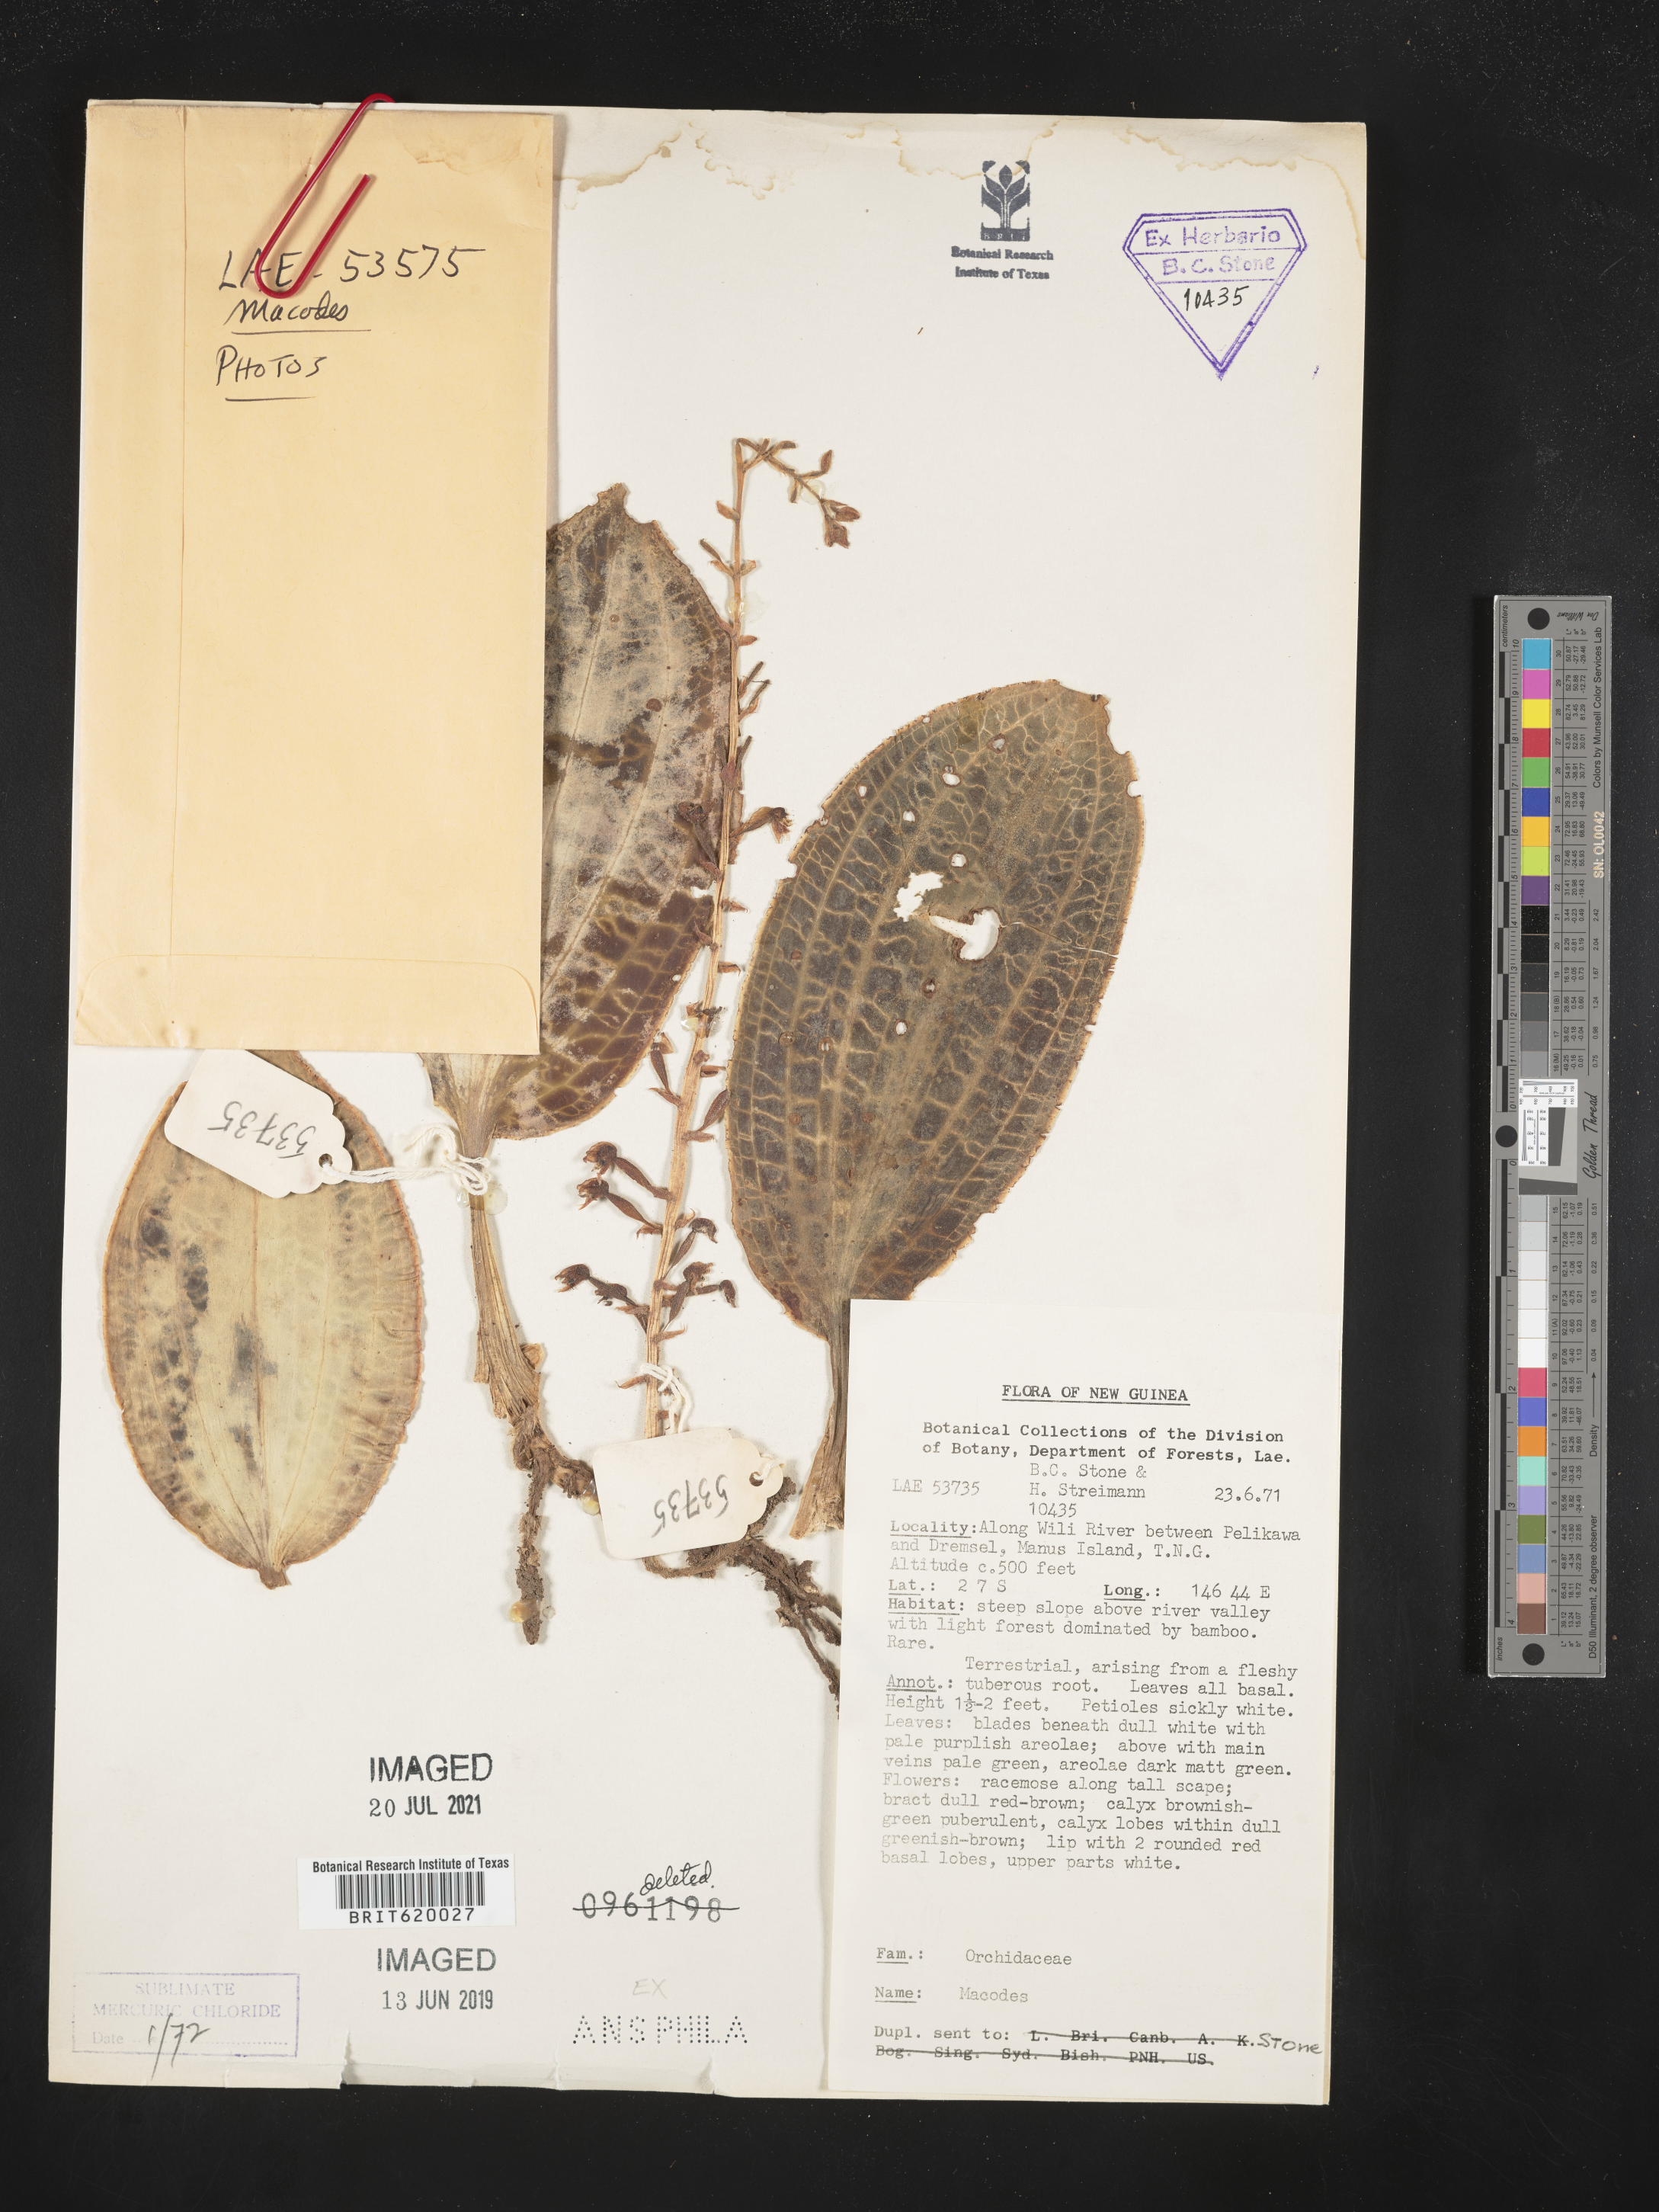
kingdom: Plantae
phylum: Tracheophyta
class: Liliopsida
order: Asparagales
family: Orchidaceae
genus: Macodes
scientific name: Macodes
